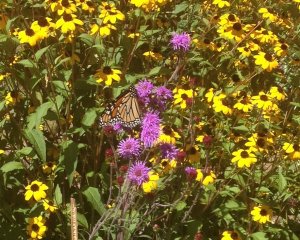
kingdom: Animalia
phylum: Arthropoda
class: Insecta
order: Lepidoptera
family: Nymphalidae
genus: Danaus
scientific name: Danaus plexippus
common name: Monarch
